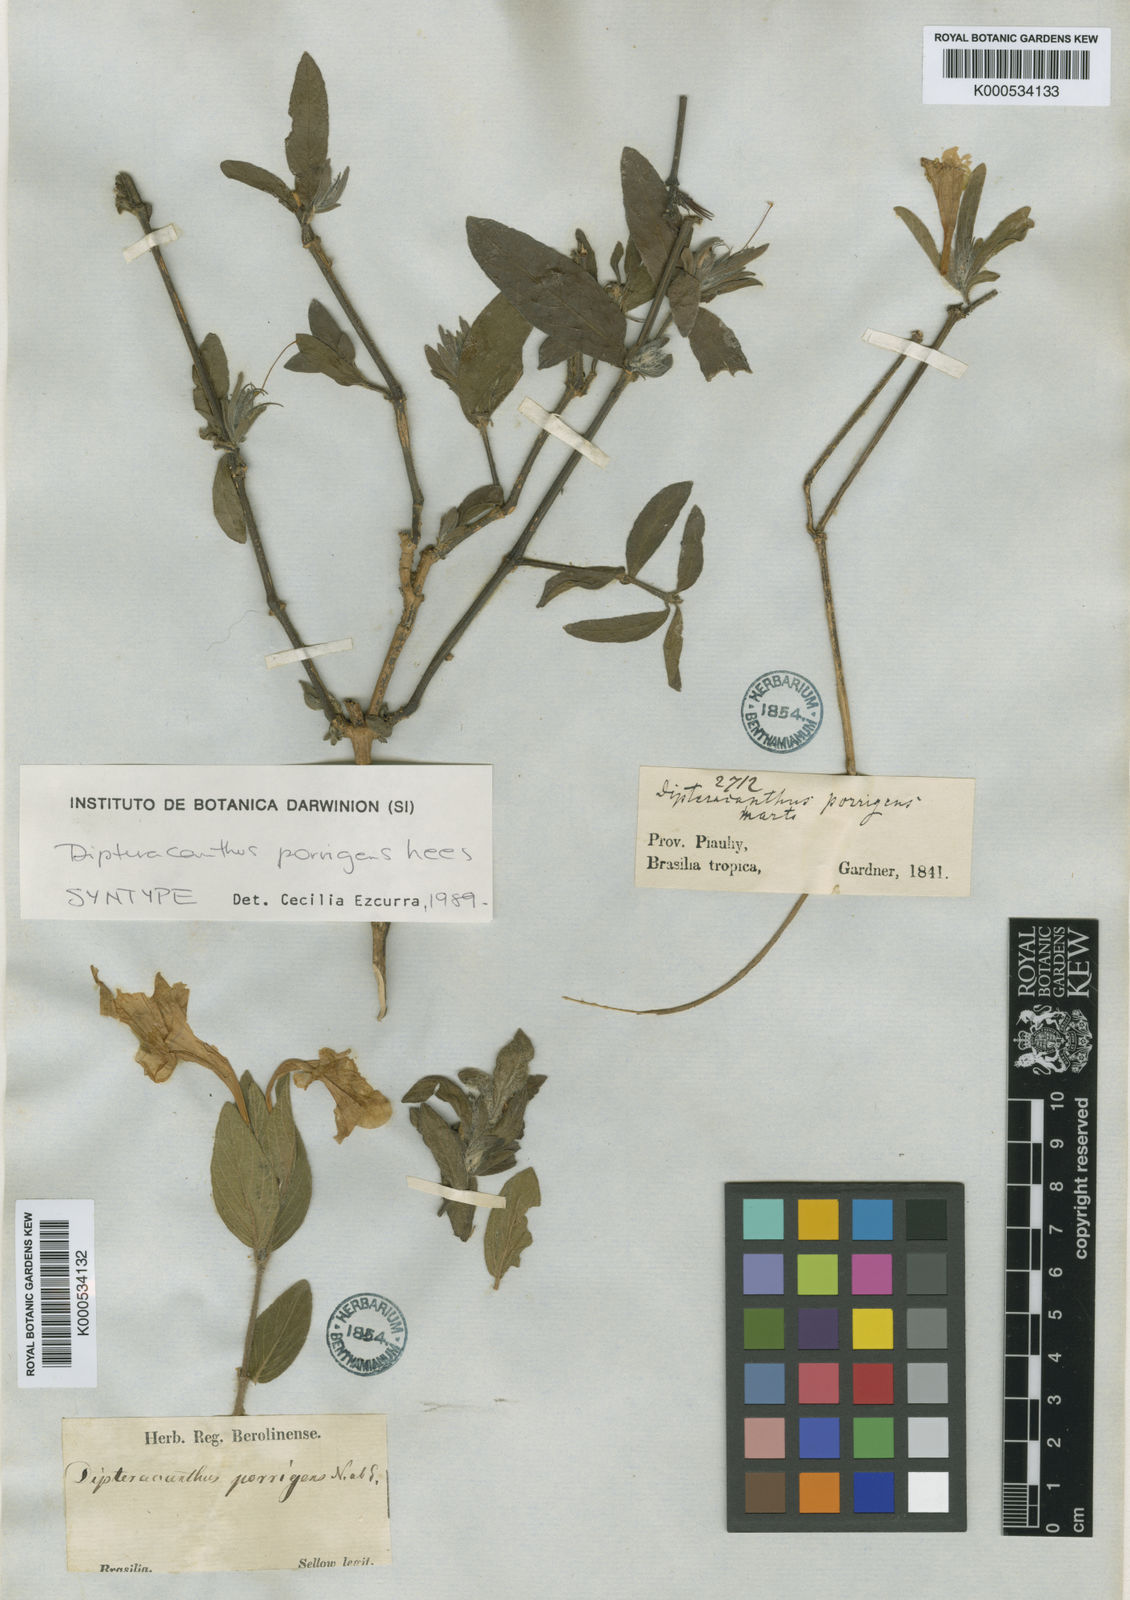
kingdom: Plantae
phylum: Tracheophyta
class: Magnoliopsida
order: Lamiales
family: Acanthaceae
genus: Ruellia
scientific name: Ruellia geminiflora
